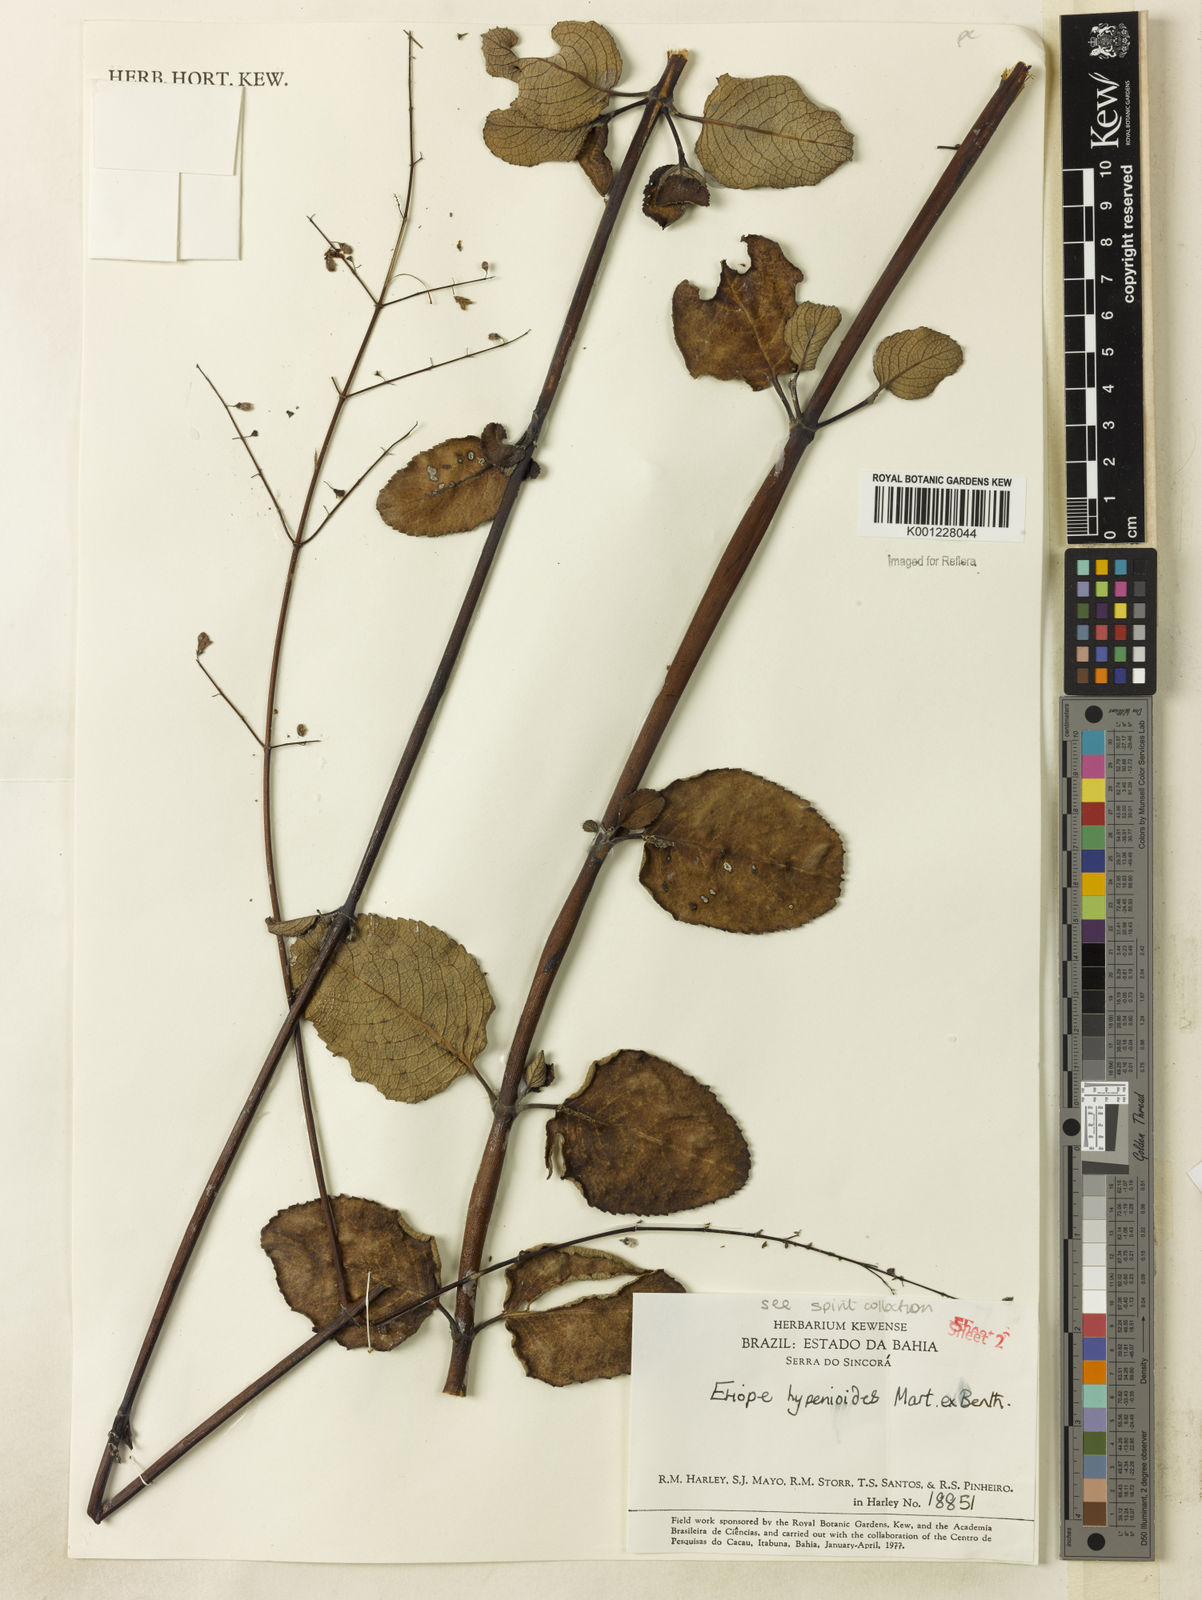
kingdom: Plantae
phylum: Tracheophyta
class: Magnoliopsida
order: Lamiales
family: Lamiaceae
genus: Eriope
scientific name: Eriope hypenioides
